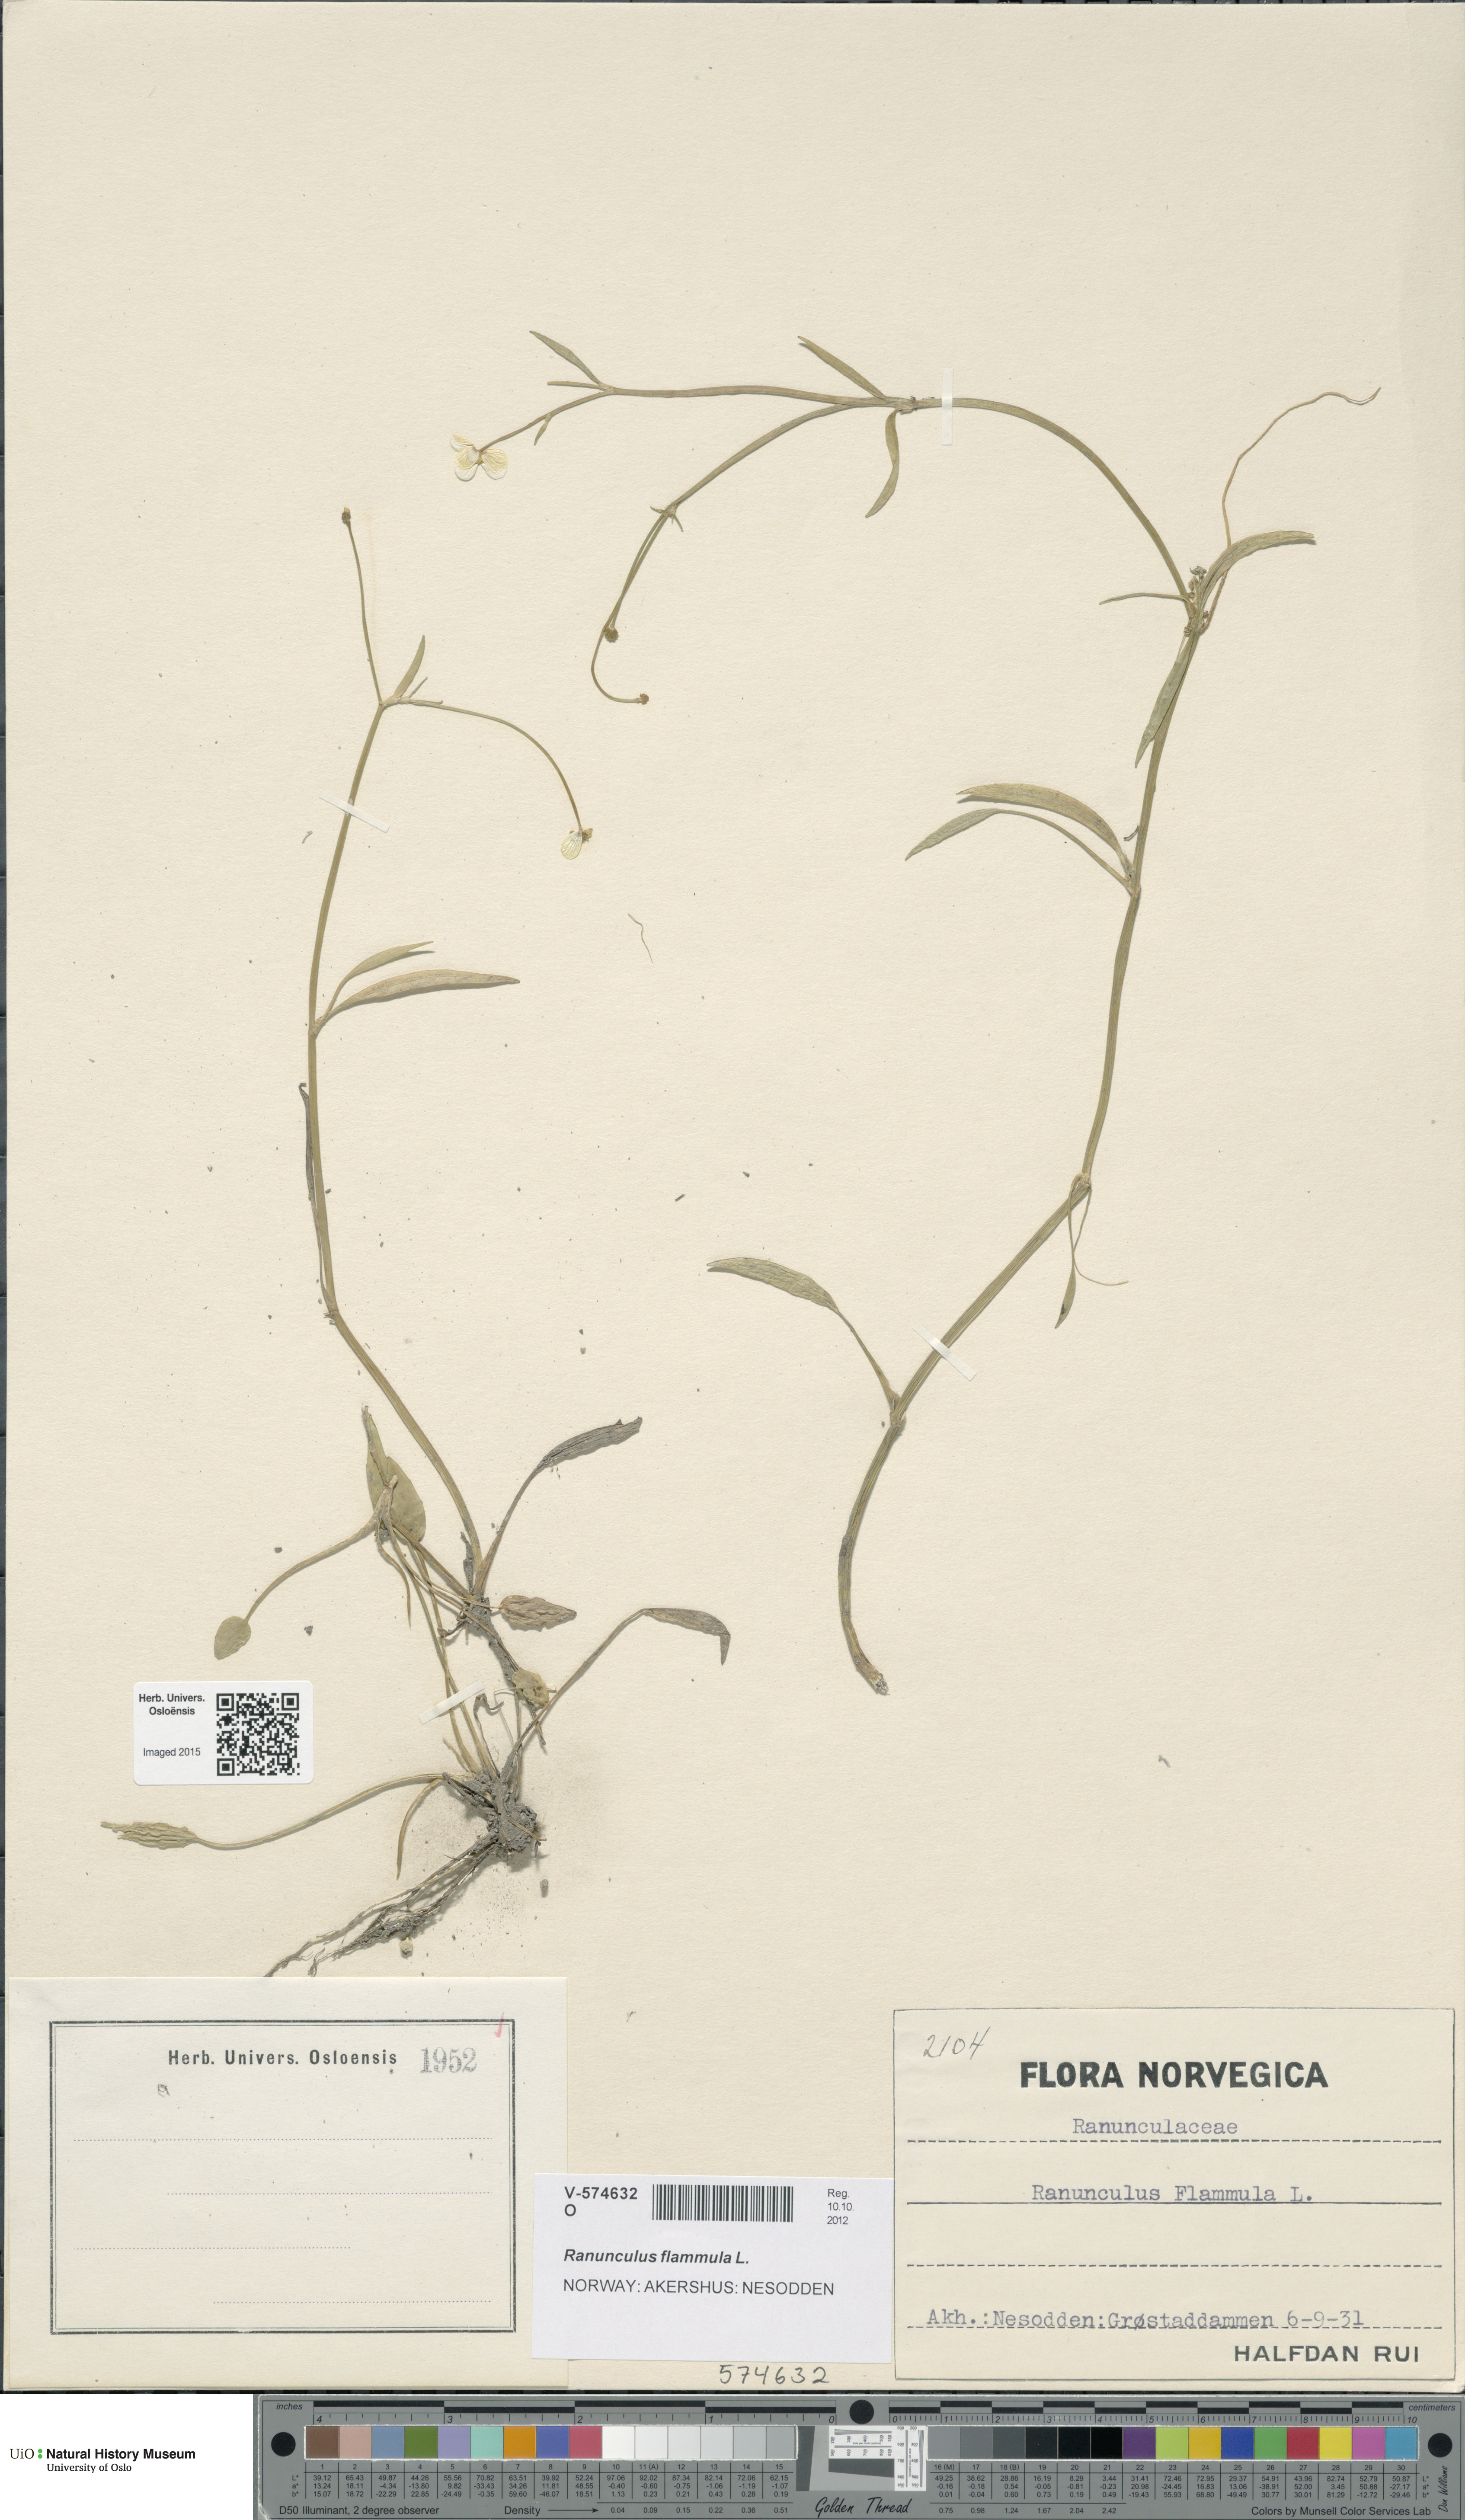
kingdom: Plantae
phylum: Tracheophyta
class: Magnoliopsida
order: Ranunculales
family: Ranunculaceae
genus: Ranunculus
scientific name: Ranunculus flammula
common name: Lesser spearwort
